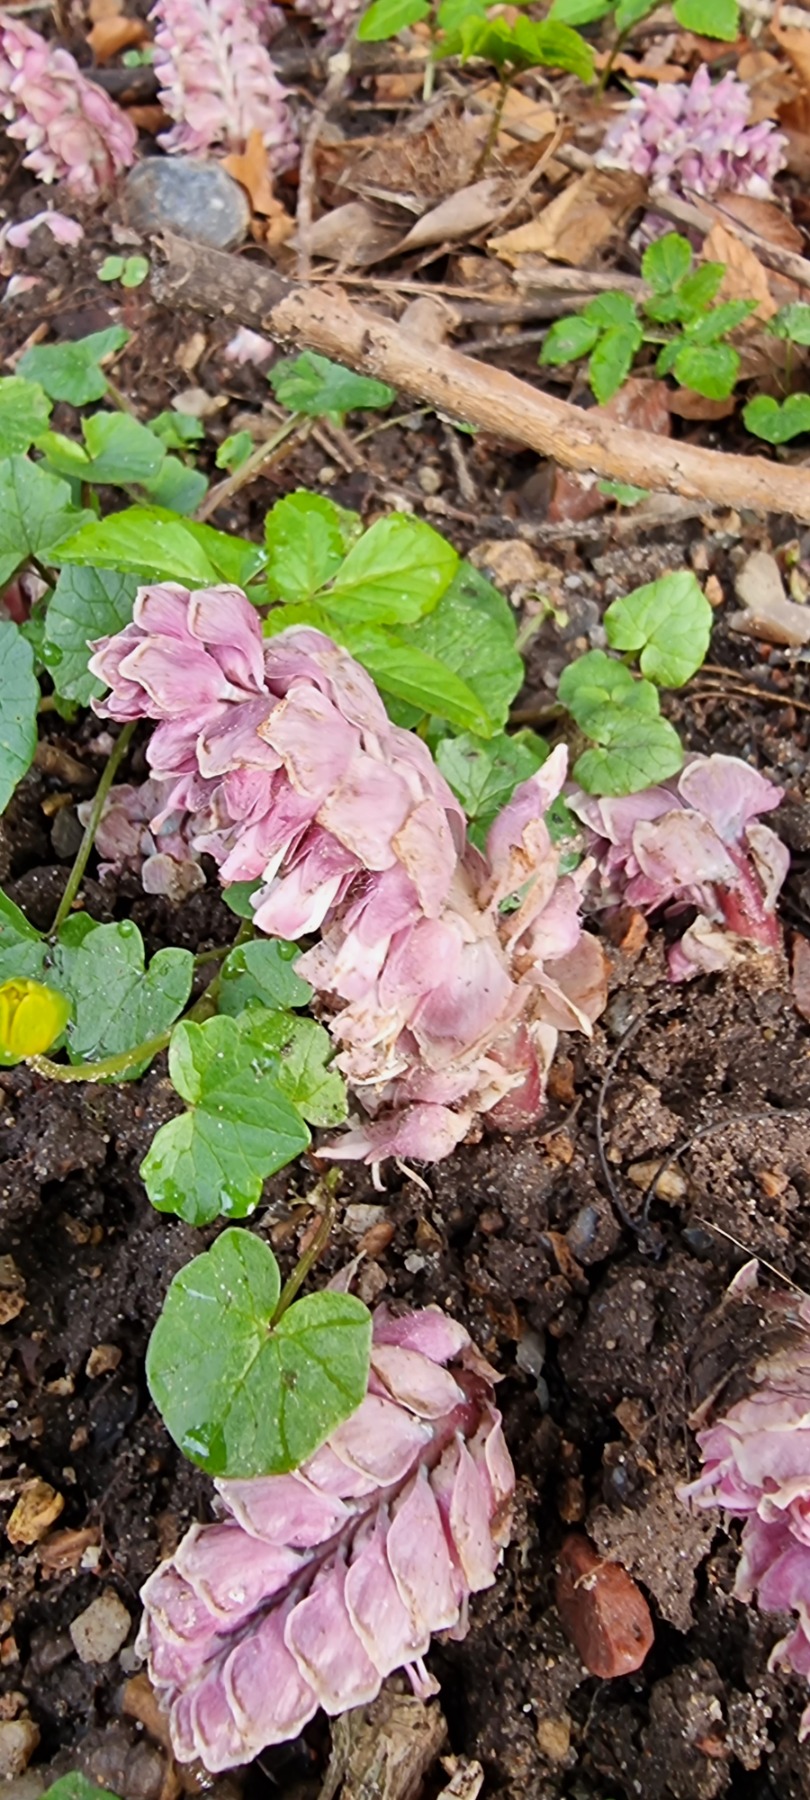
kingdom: Plantae
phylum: Tracheophyta
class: Magnoliopsida
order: Lamiales
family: Orobanchaceae
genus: Lathraea
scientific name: Lathraea squamaria
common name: Skælrod
